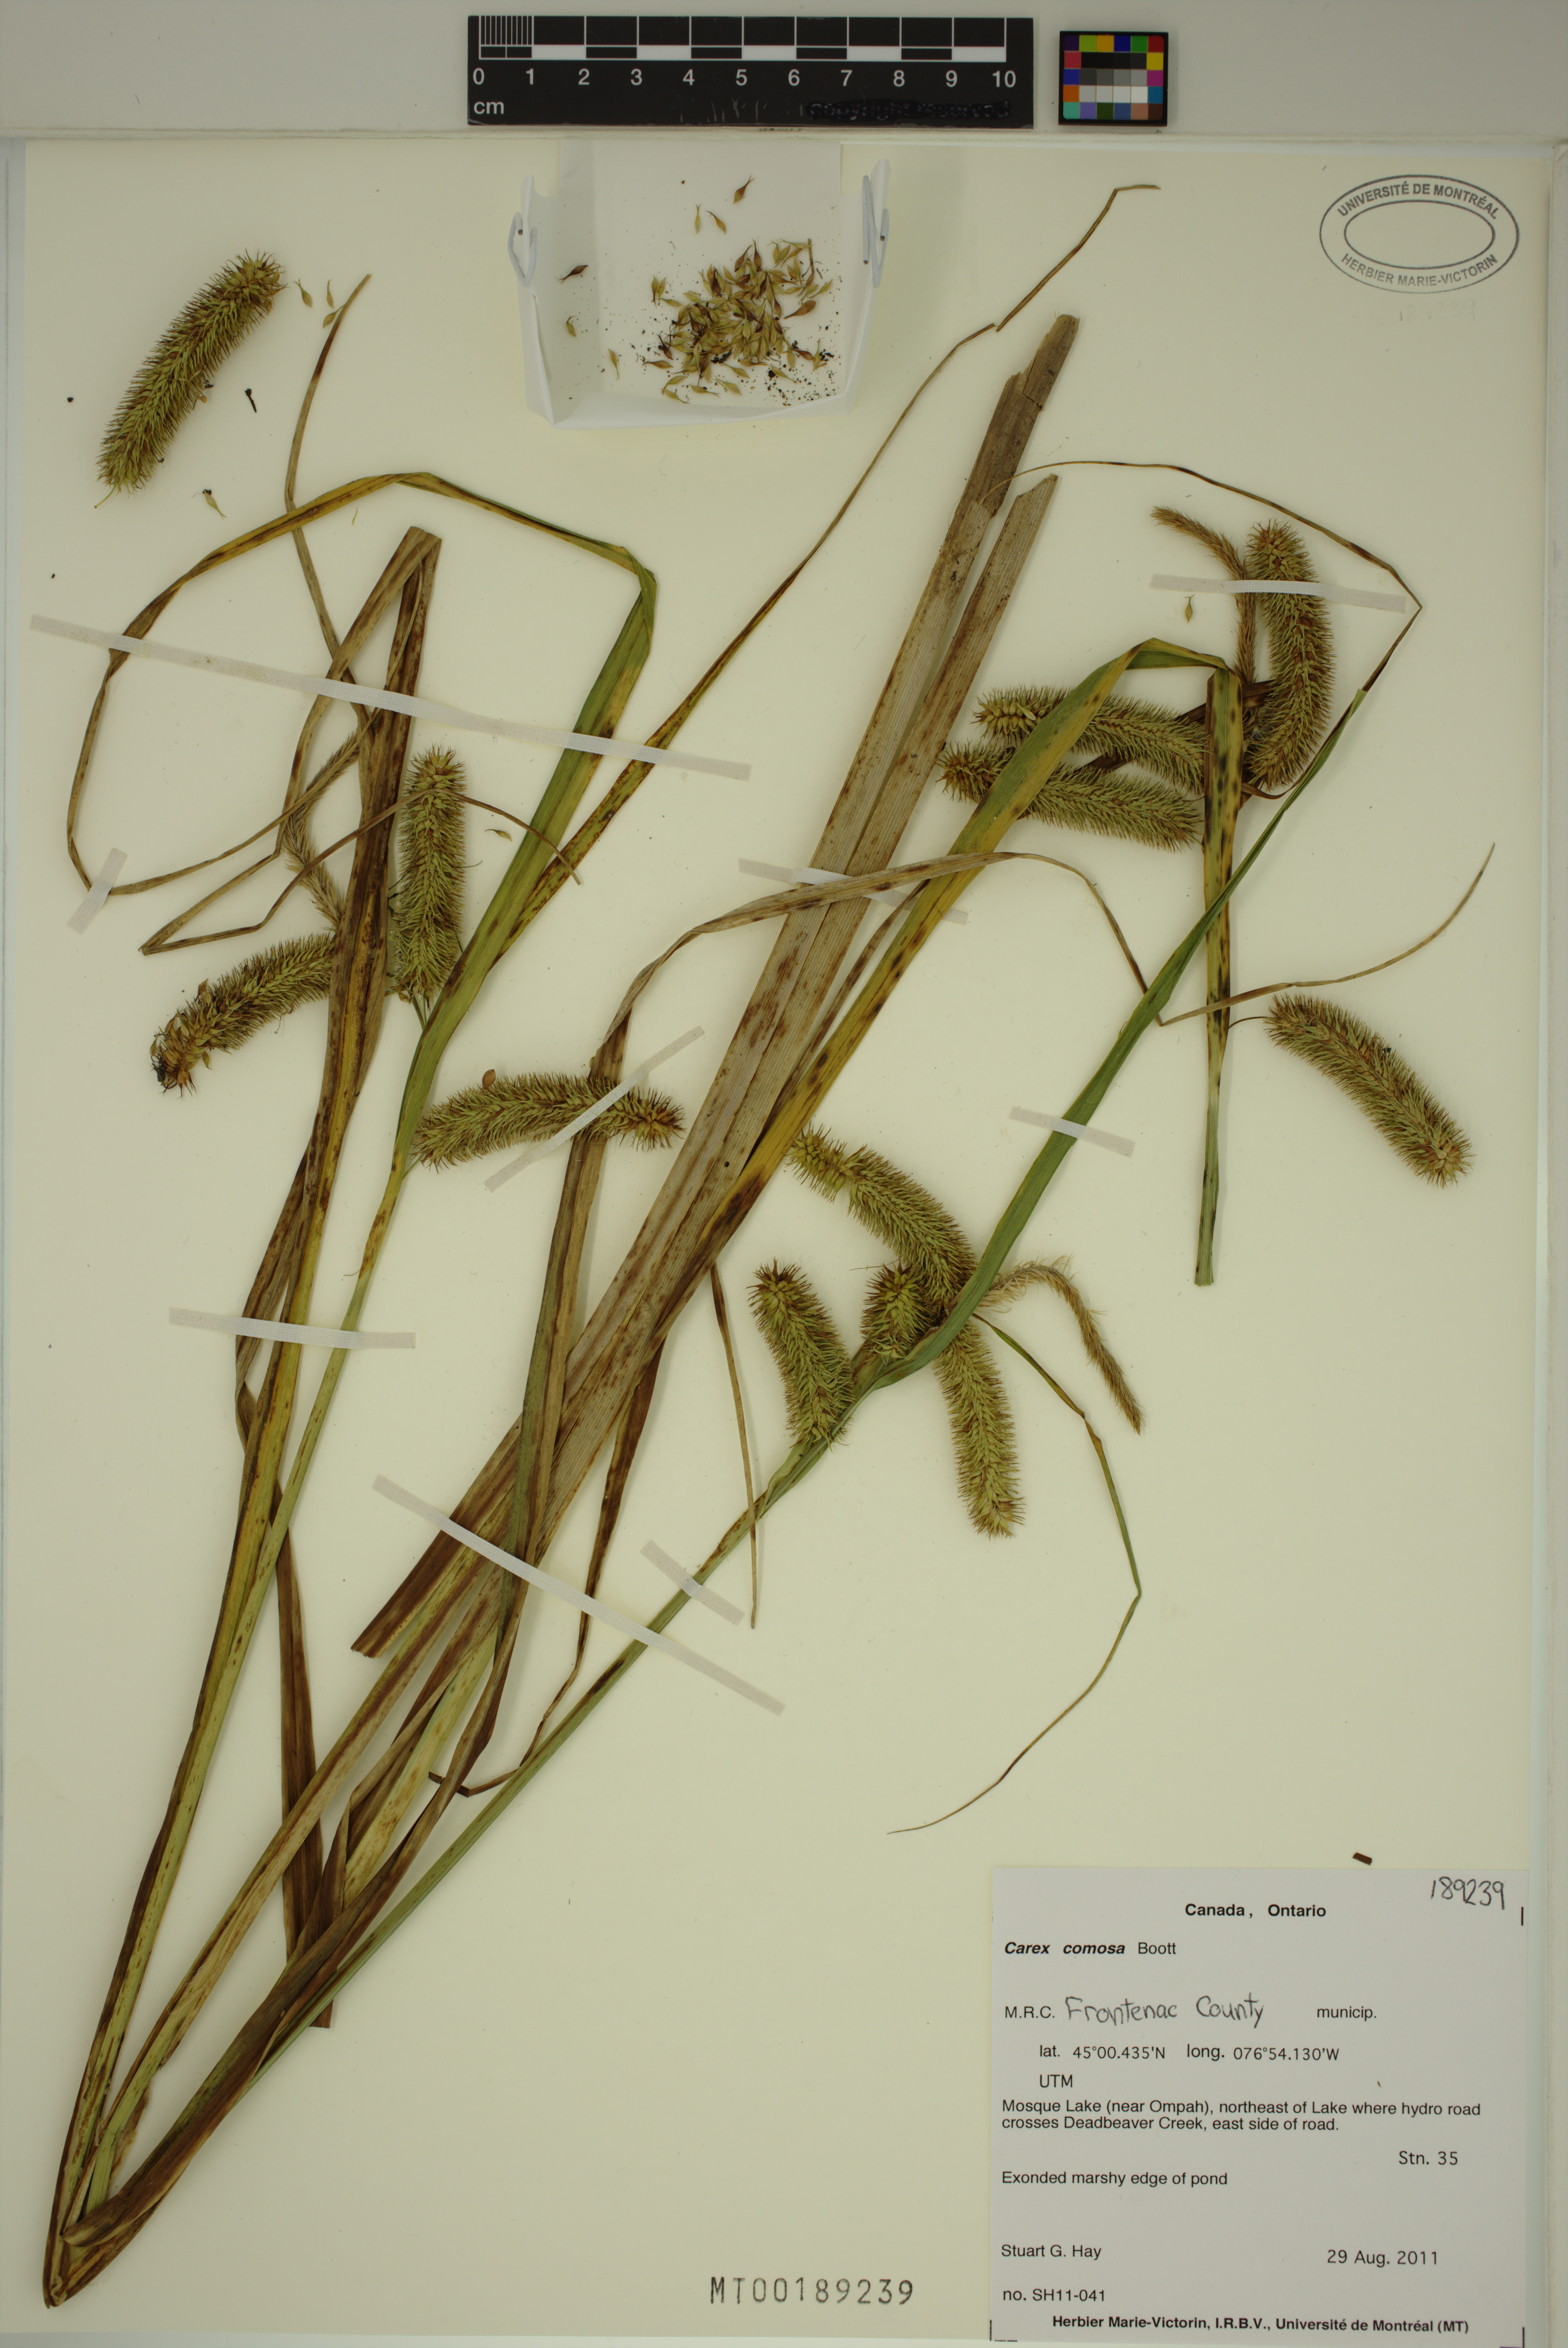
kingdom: Plantae
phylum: Tracheophyta
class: Liliopsida
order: Poales
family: Cyperaceae
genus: Carex
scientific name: Carex comosa
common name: Bristly sedge
